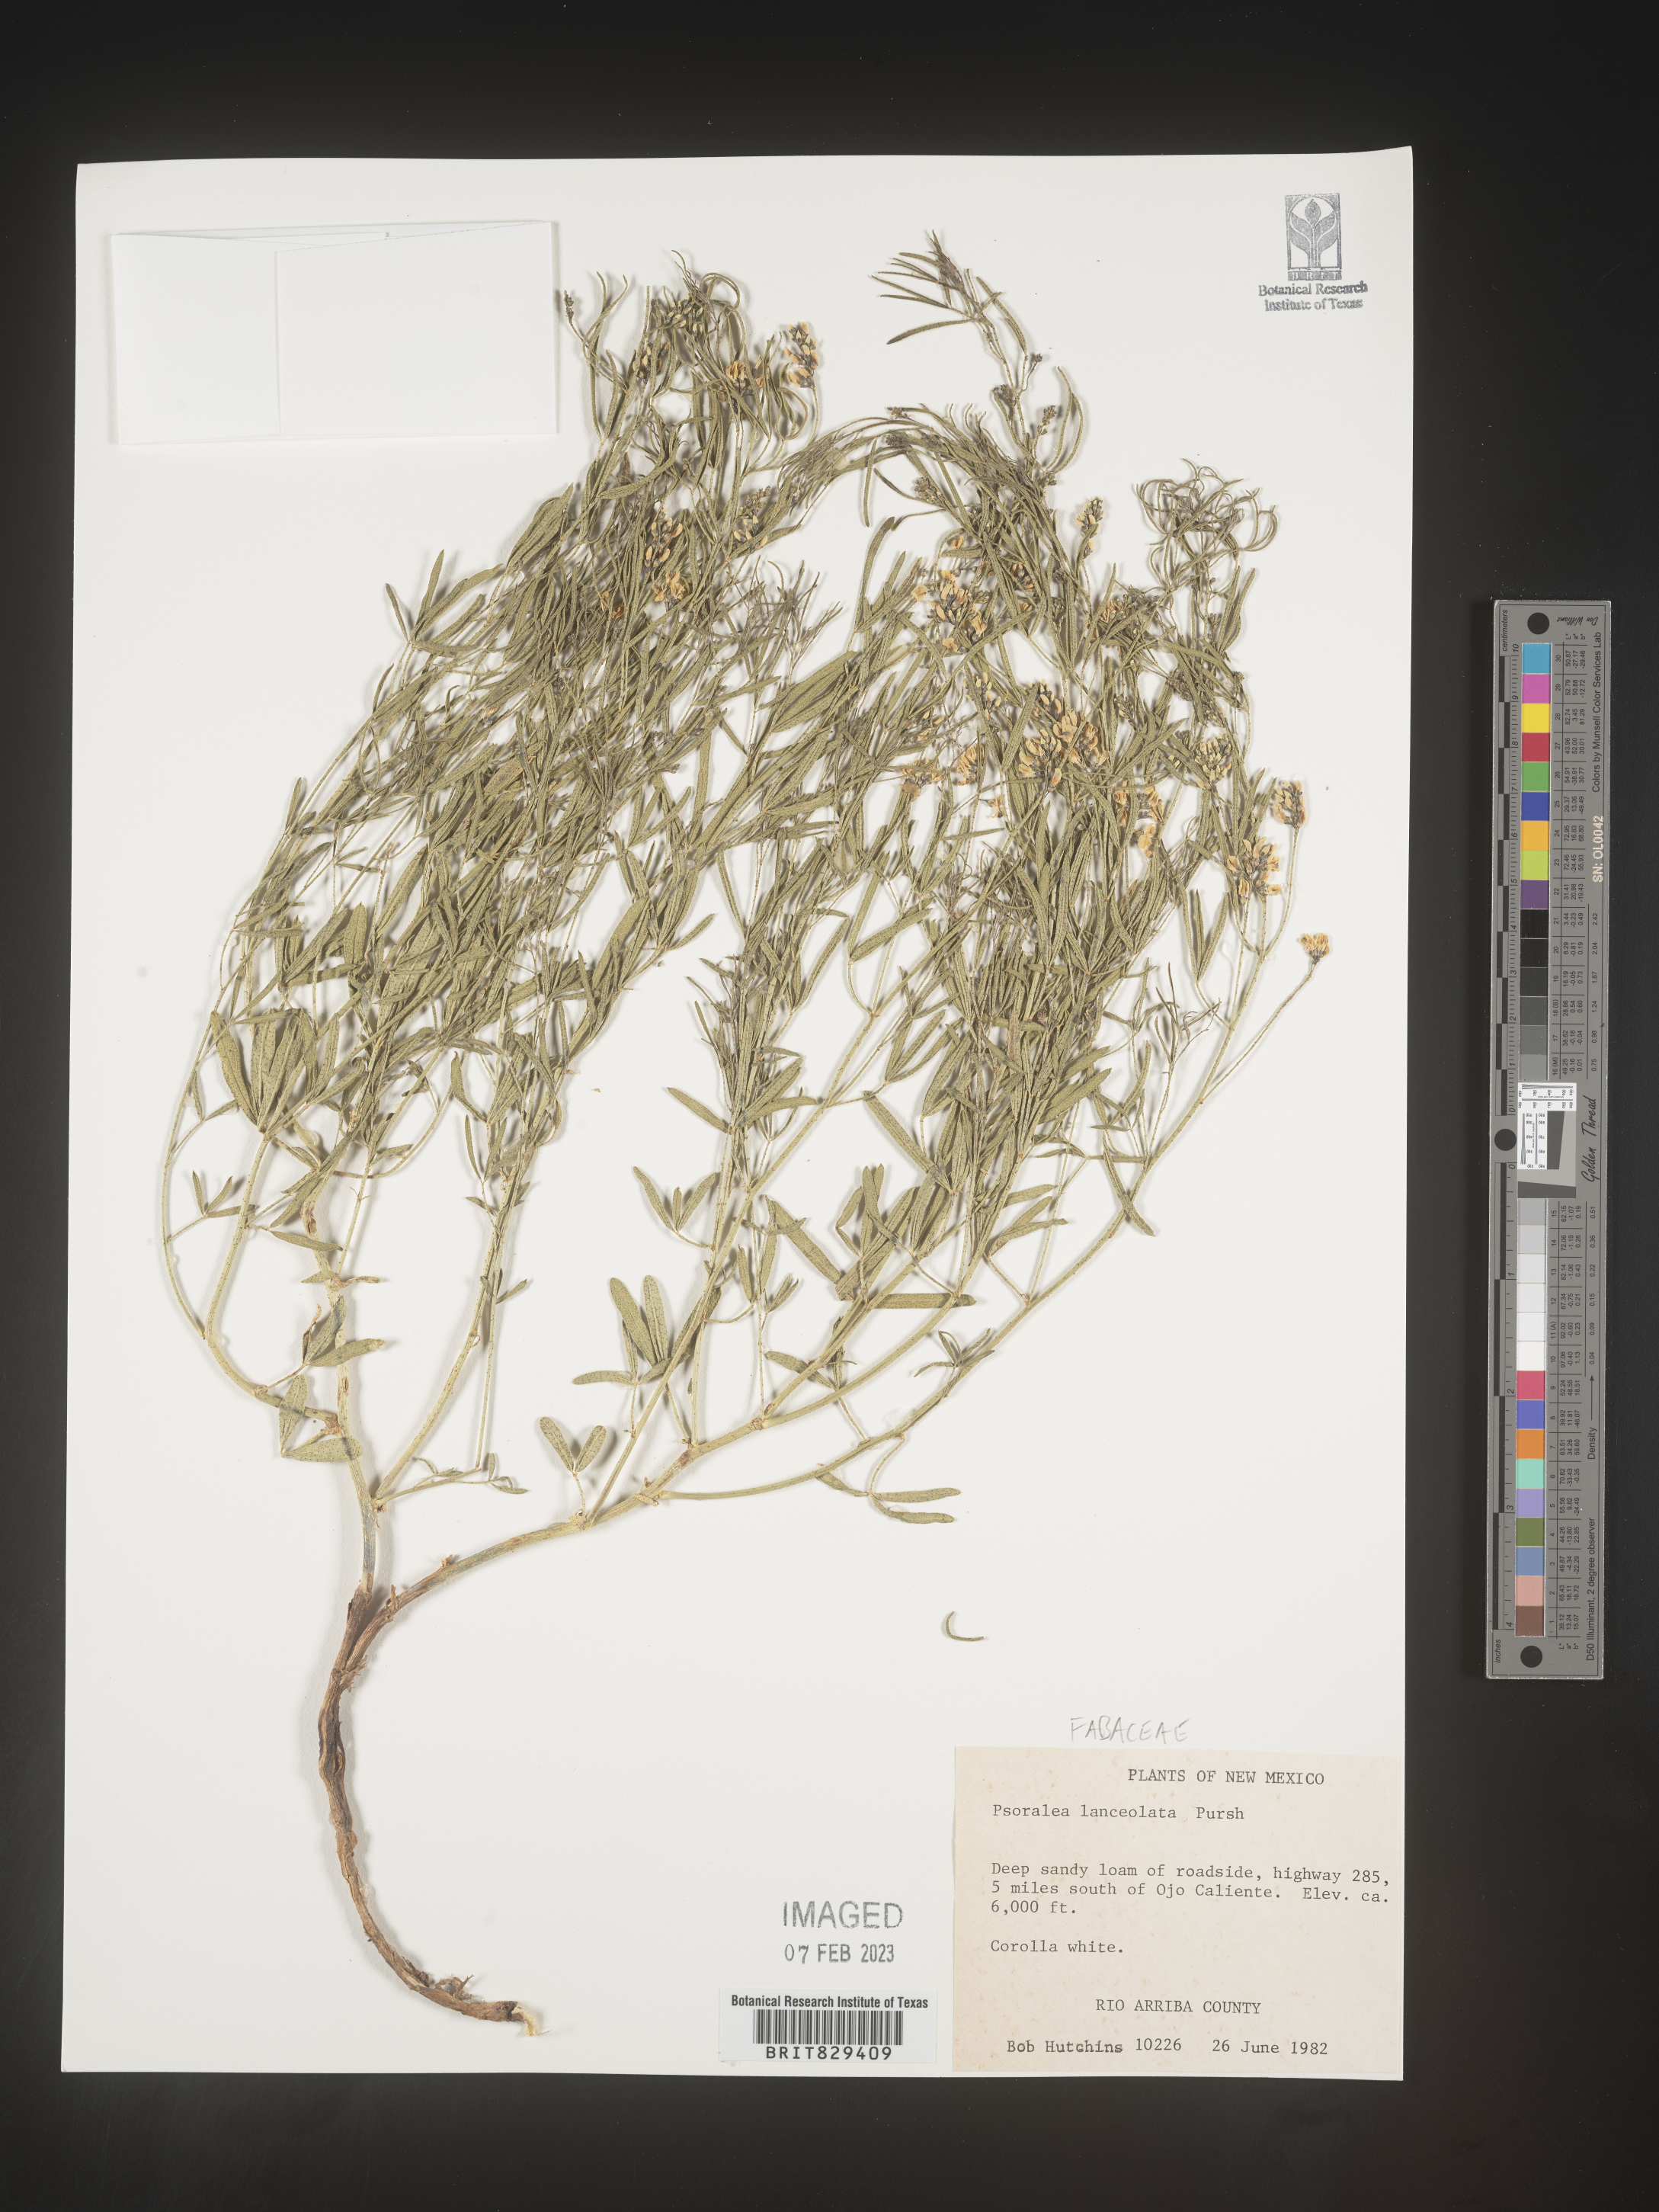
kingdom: Plantae
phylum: Tracheophyta
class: Magnoliopsida
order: Fabales
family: Fabaceae
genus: Psoralea
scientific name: Psoralea
